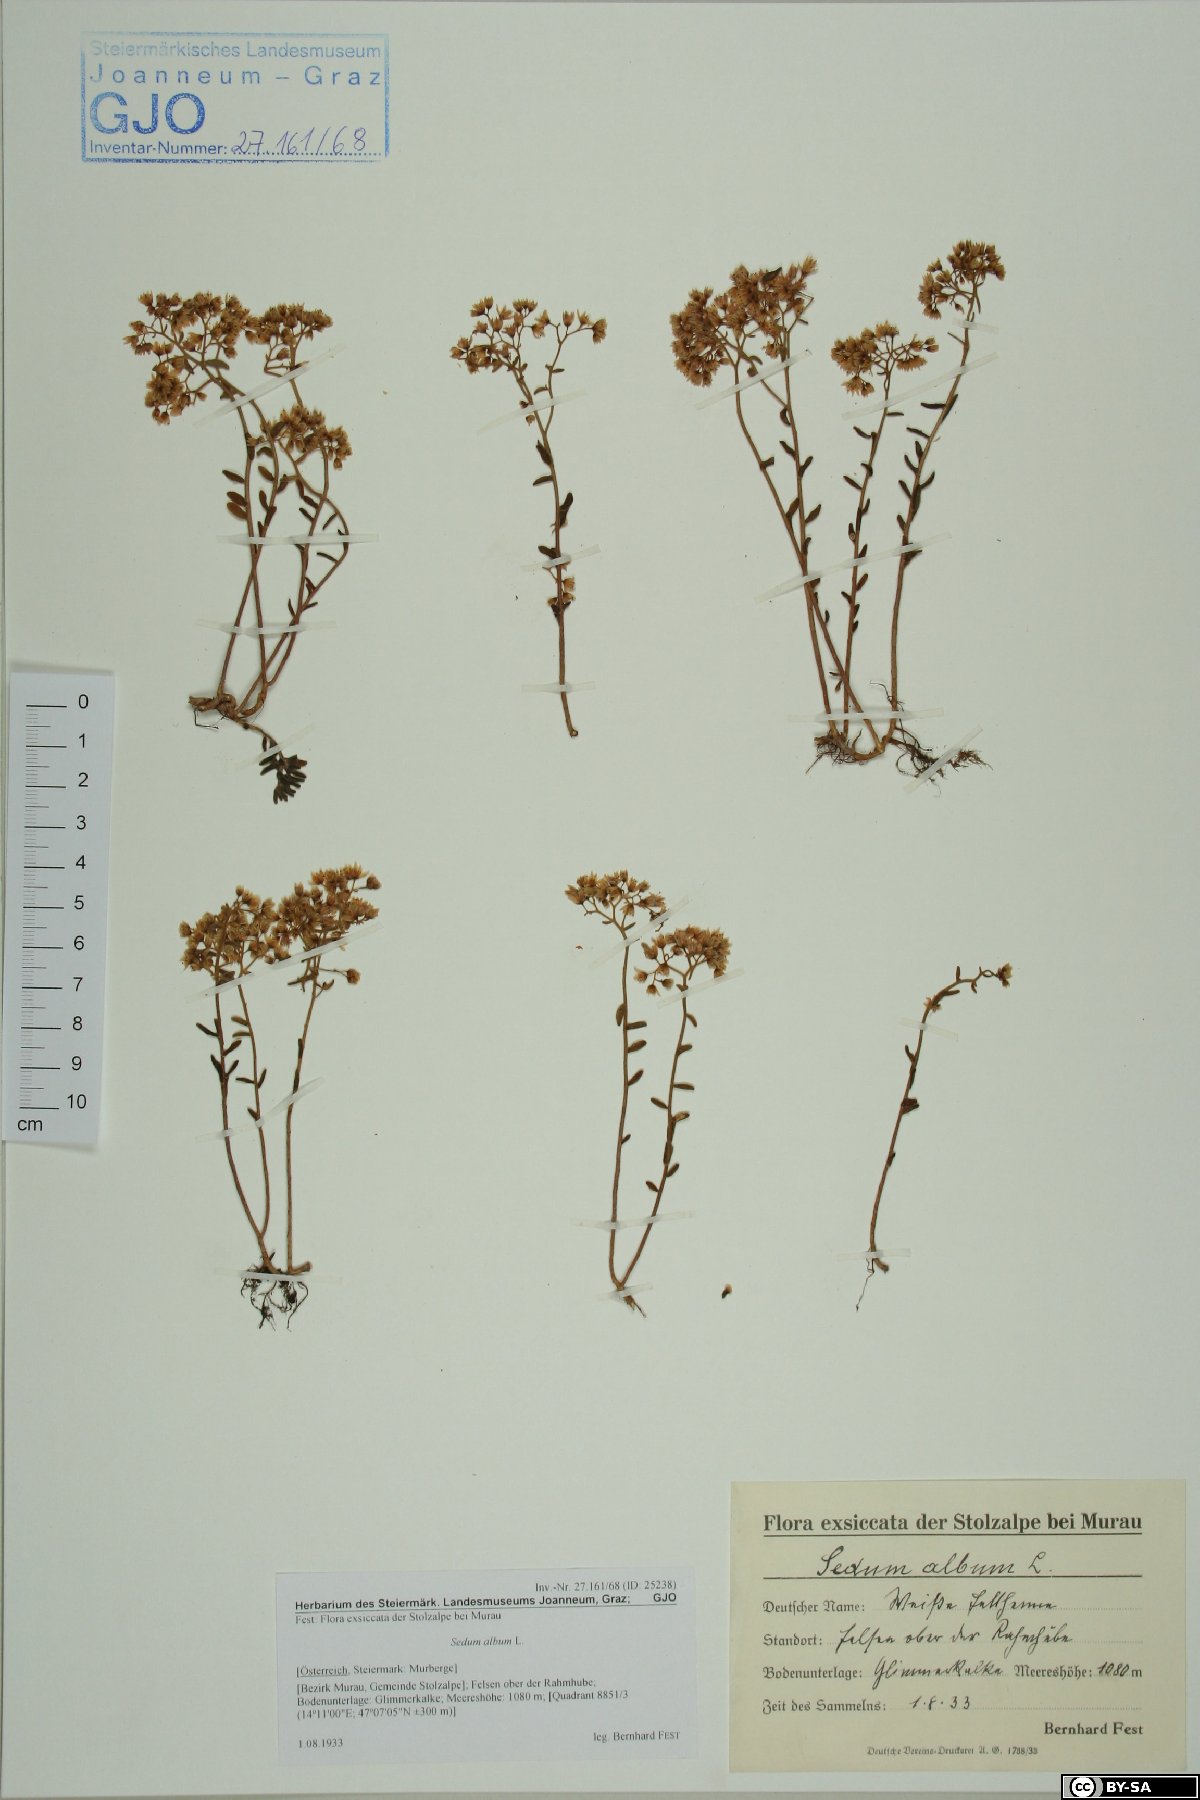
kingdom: Plantae
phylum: Tracheophyta
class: Magnoliopsida
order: Saxifragales
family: Crassulaceae
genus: Sedum
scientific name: Sedum album
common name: White stonecrop
